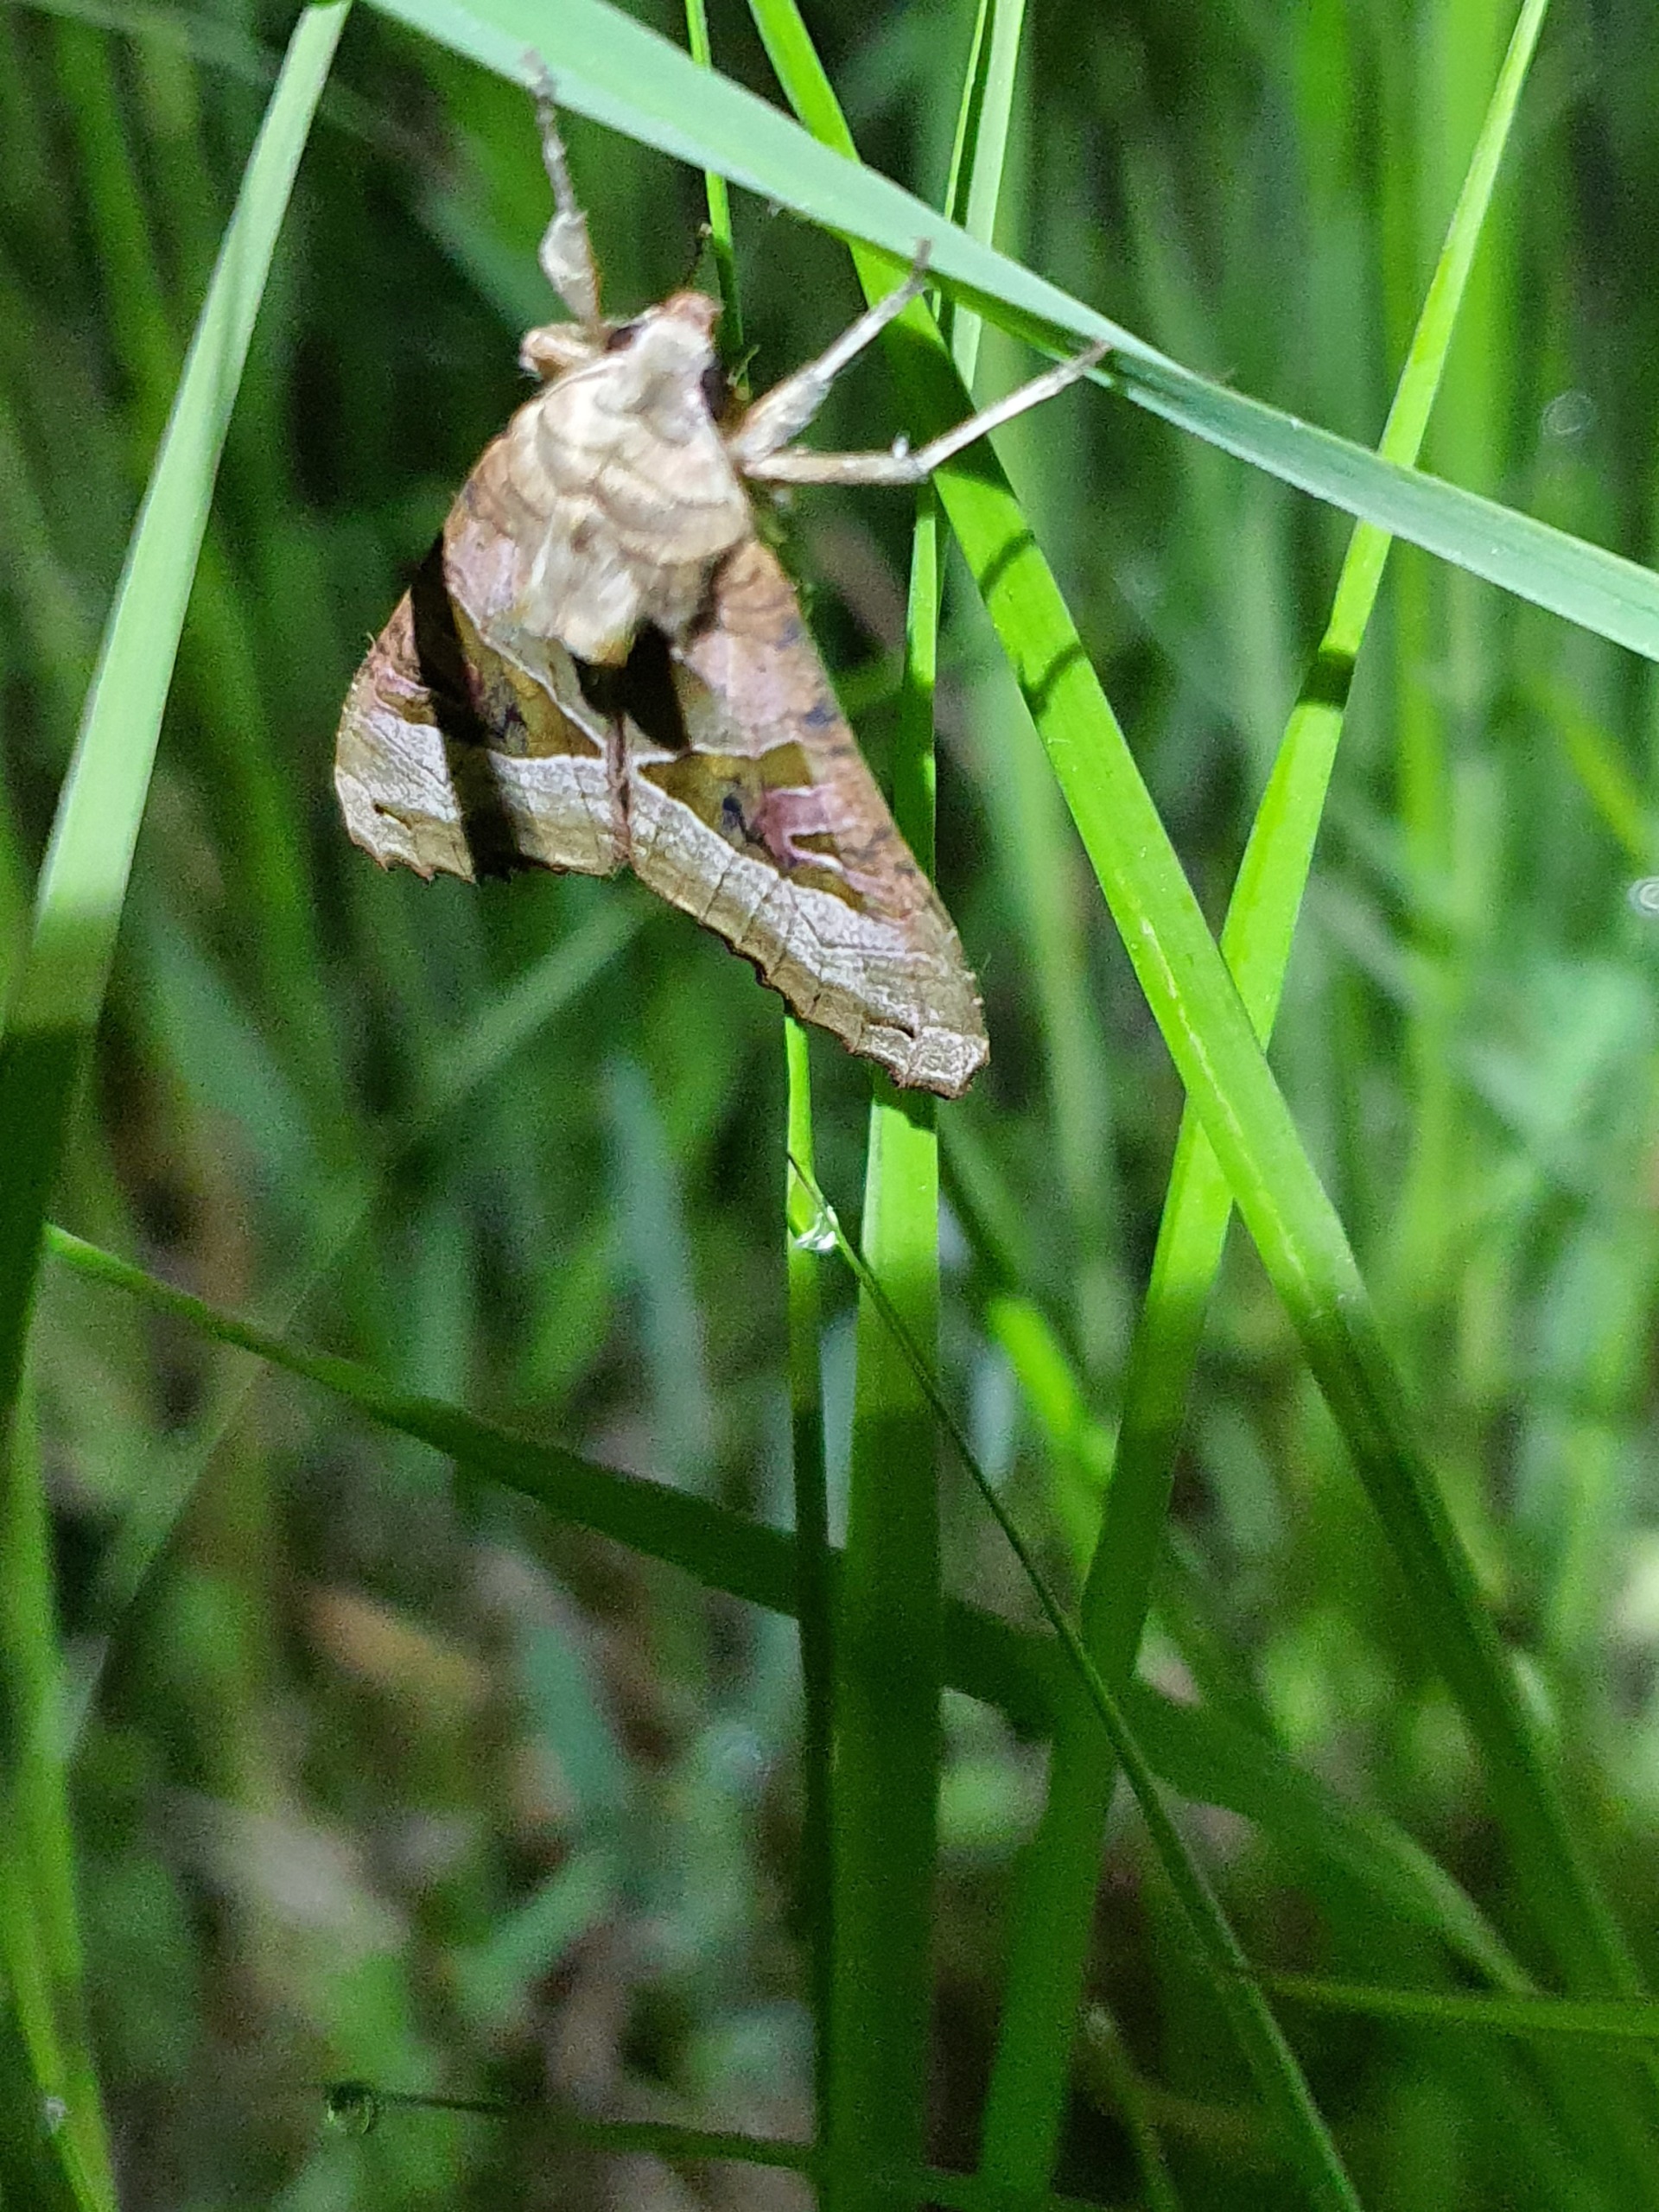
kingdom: Animalia
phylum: Arthropoda
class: Insecta
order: Lepidoptera
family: Noctuidae
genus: Phlogophora
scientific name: Phlogophora meticulosa
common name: Agatugle
